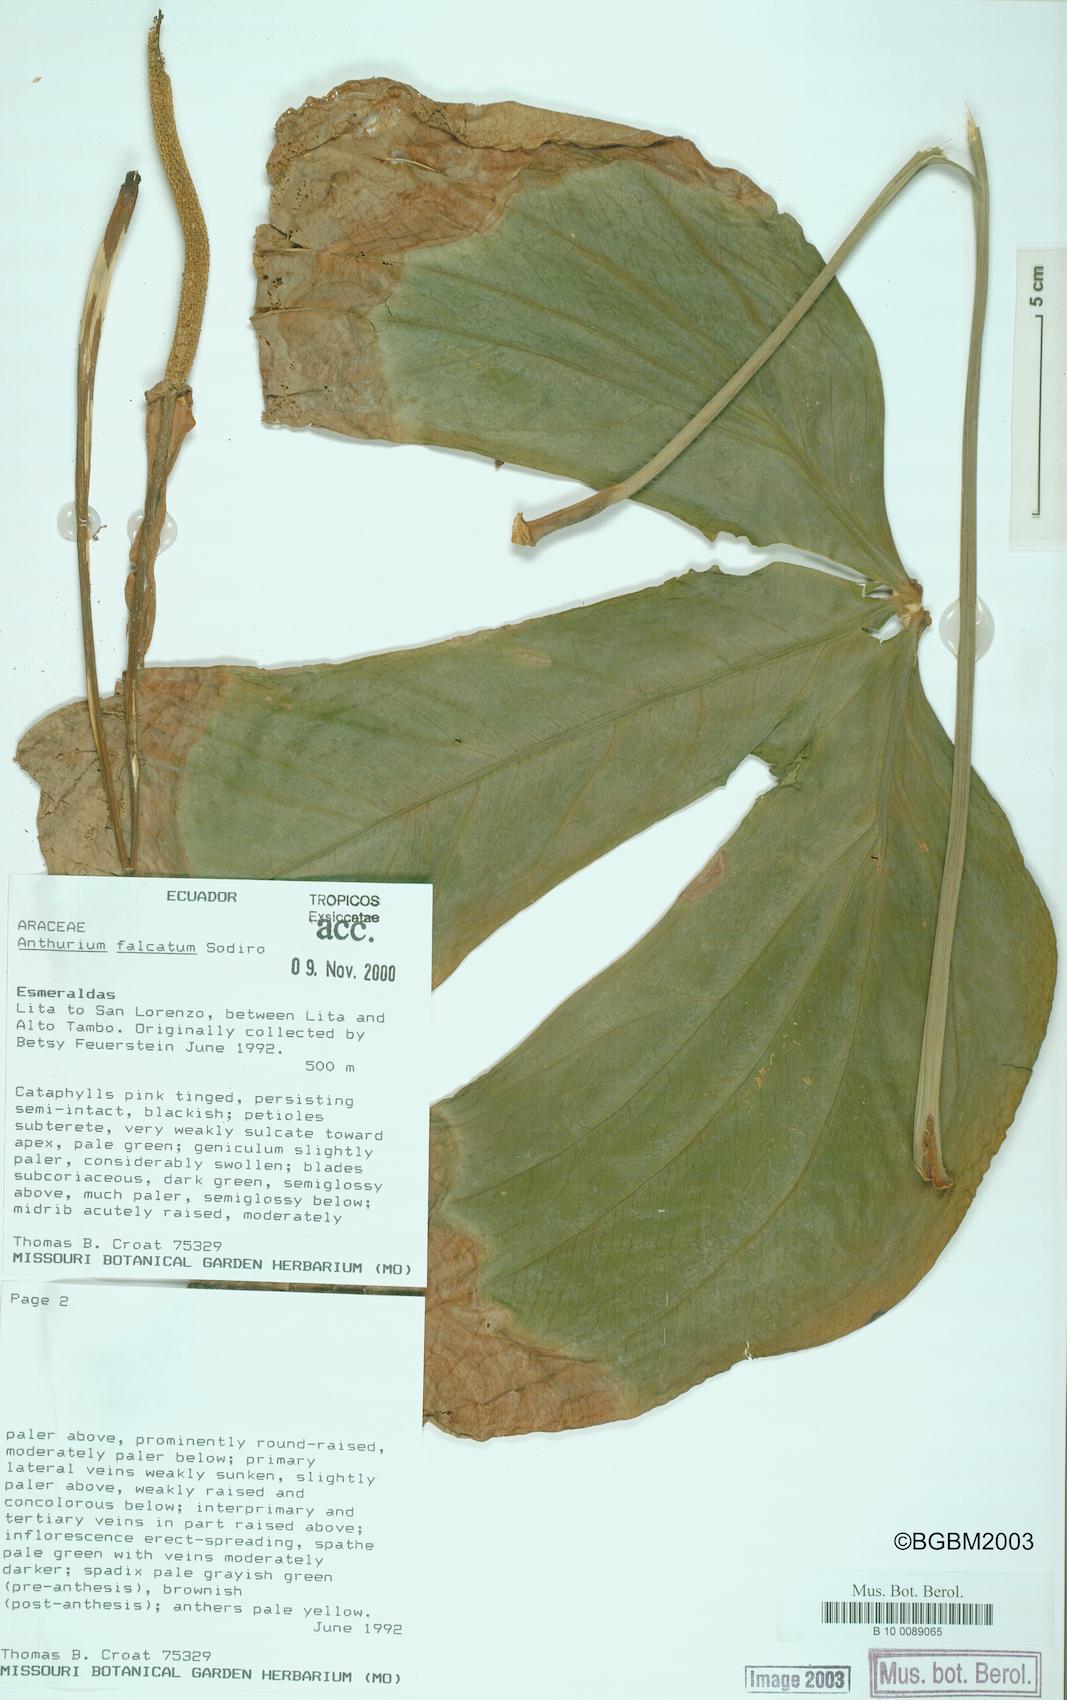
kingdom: Plantae
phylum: Tracheophyta
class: Liliopsida
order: Alismatales
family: Araceae
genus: Anthurium
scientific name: Anthurium rimbachii
